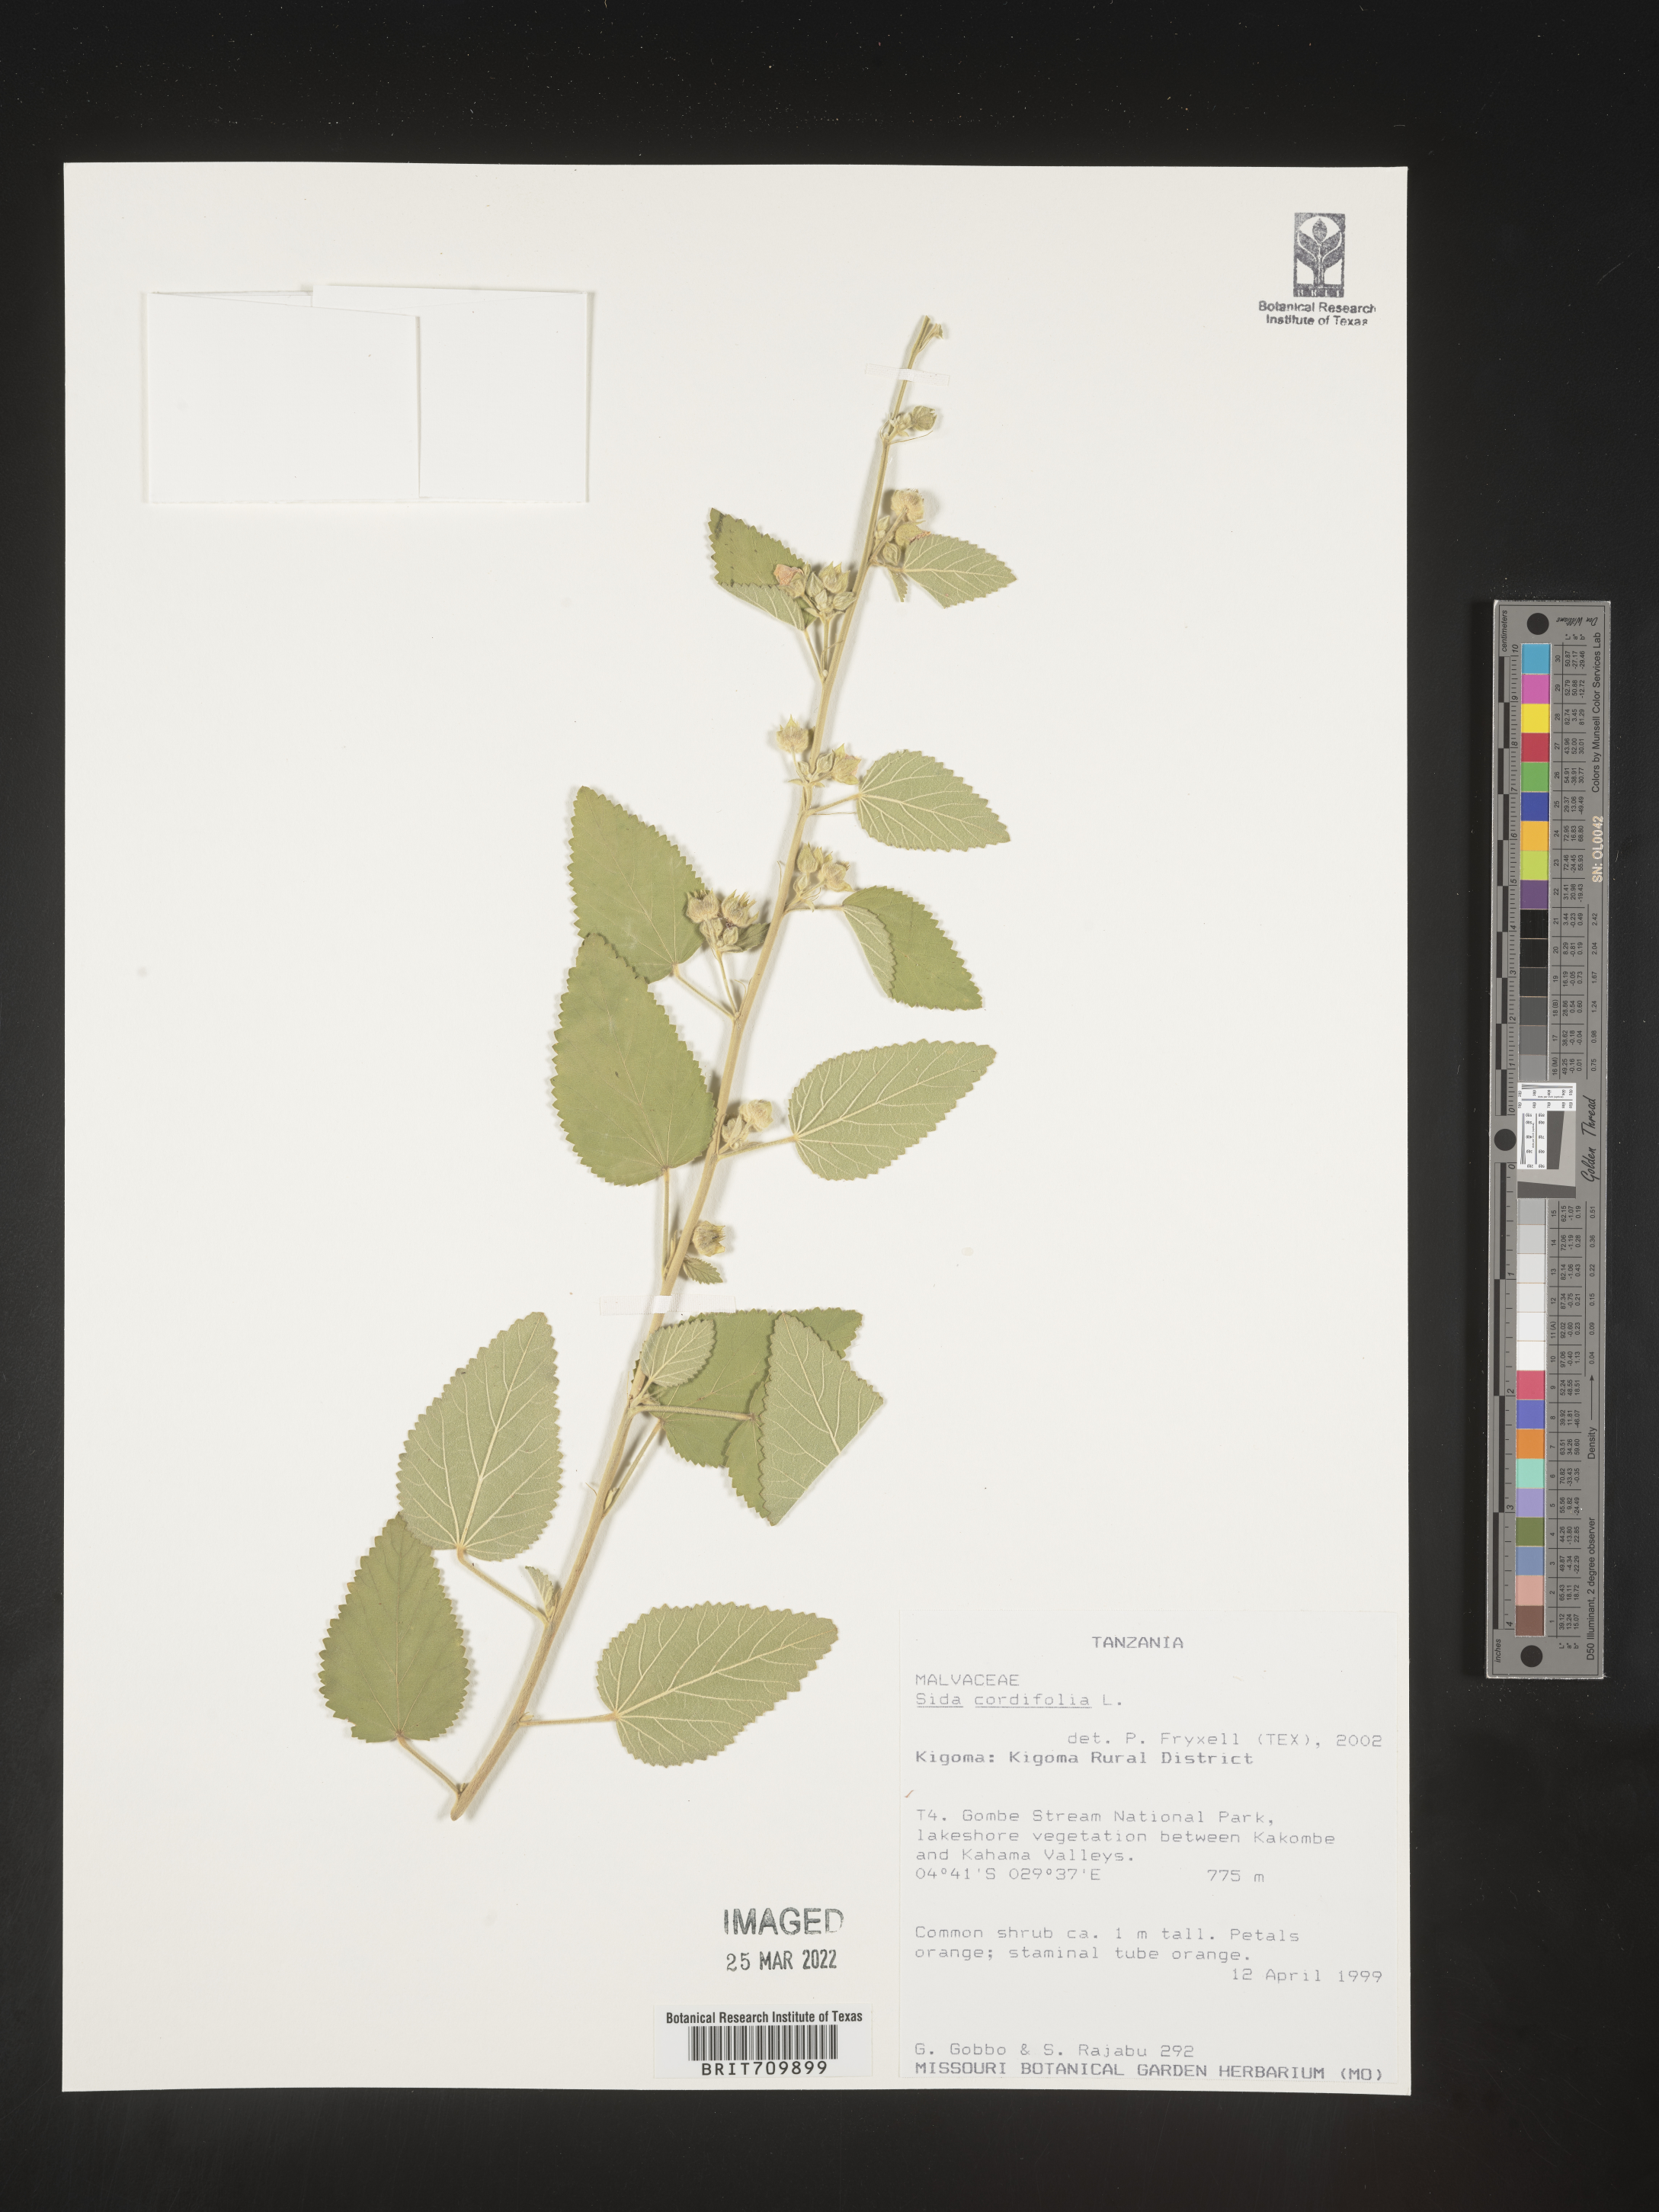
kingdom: Plantae
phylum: Tracheophyta
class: Magnoliopsida
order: Malvales
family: Malvaceae
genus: Sida
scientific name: Sida
